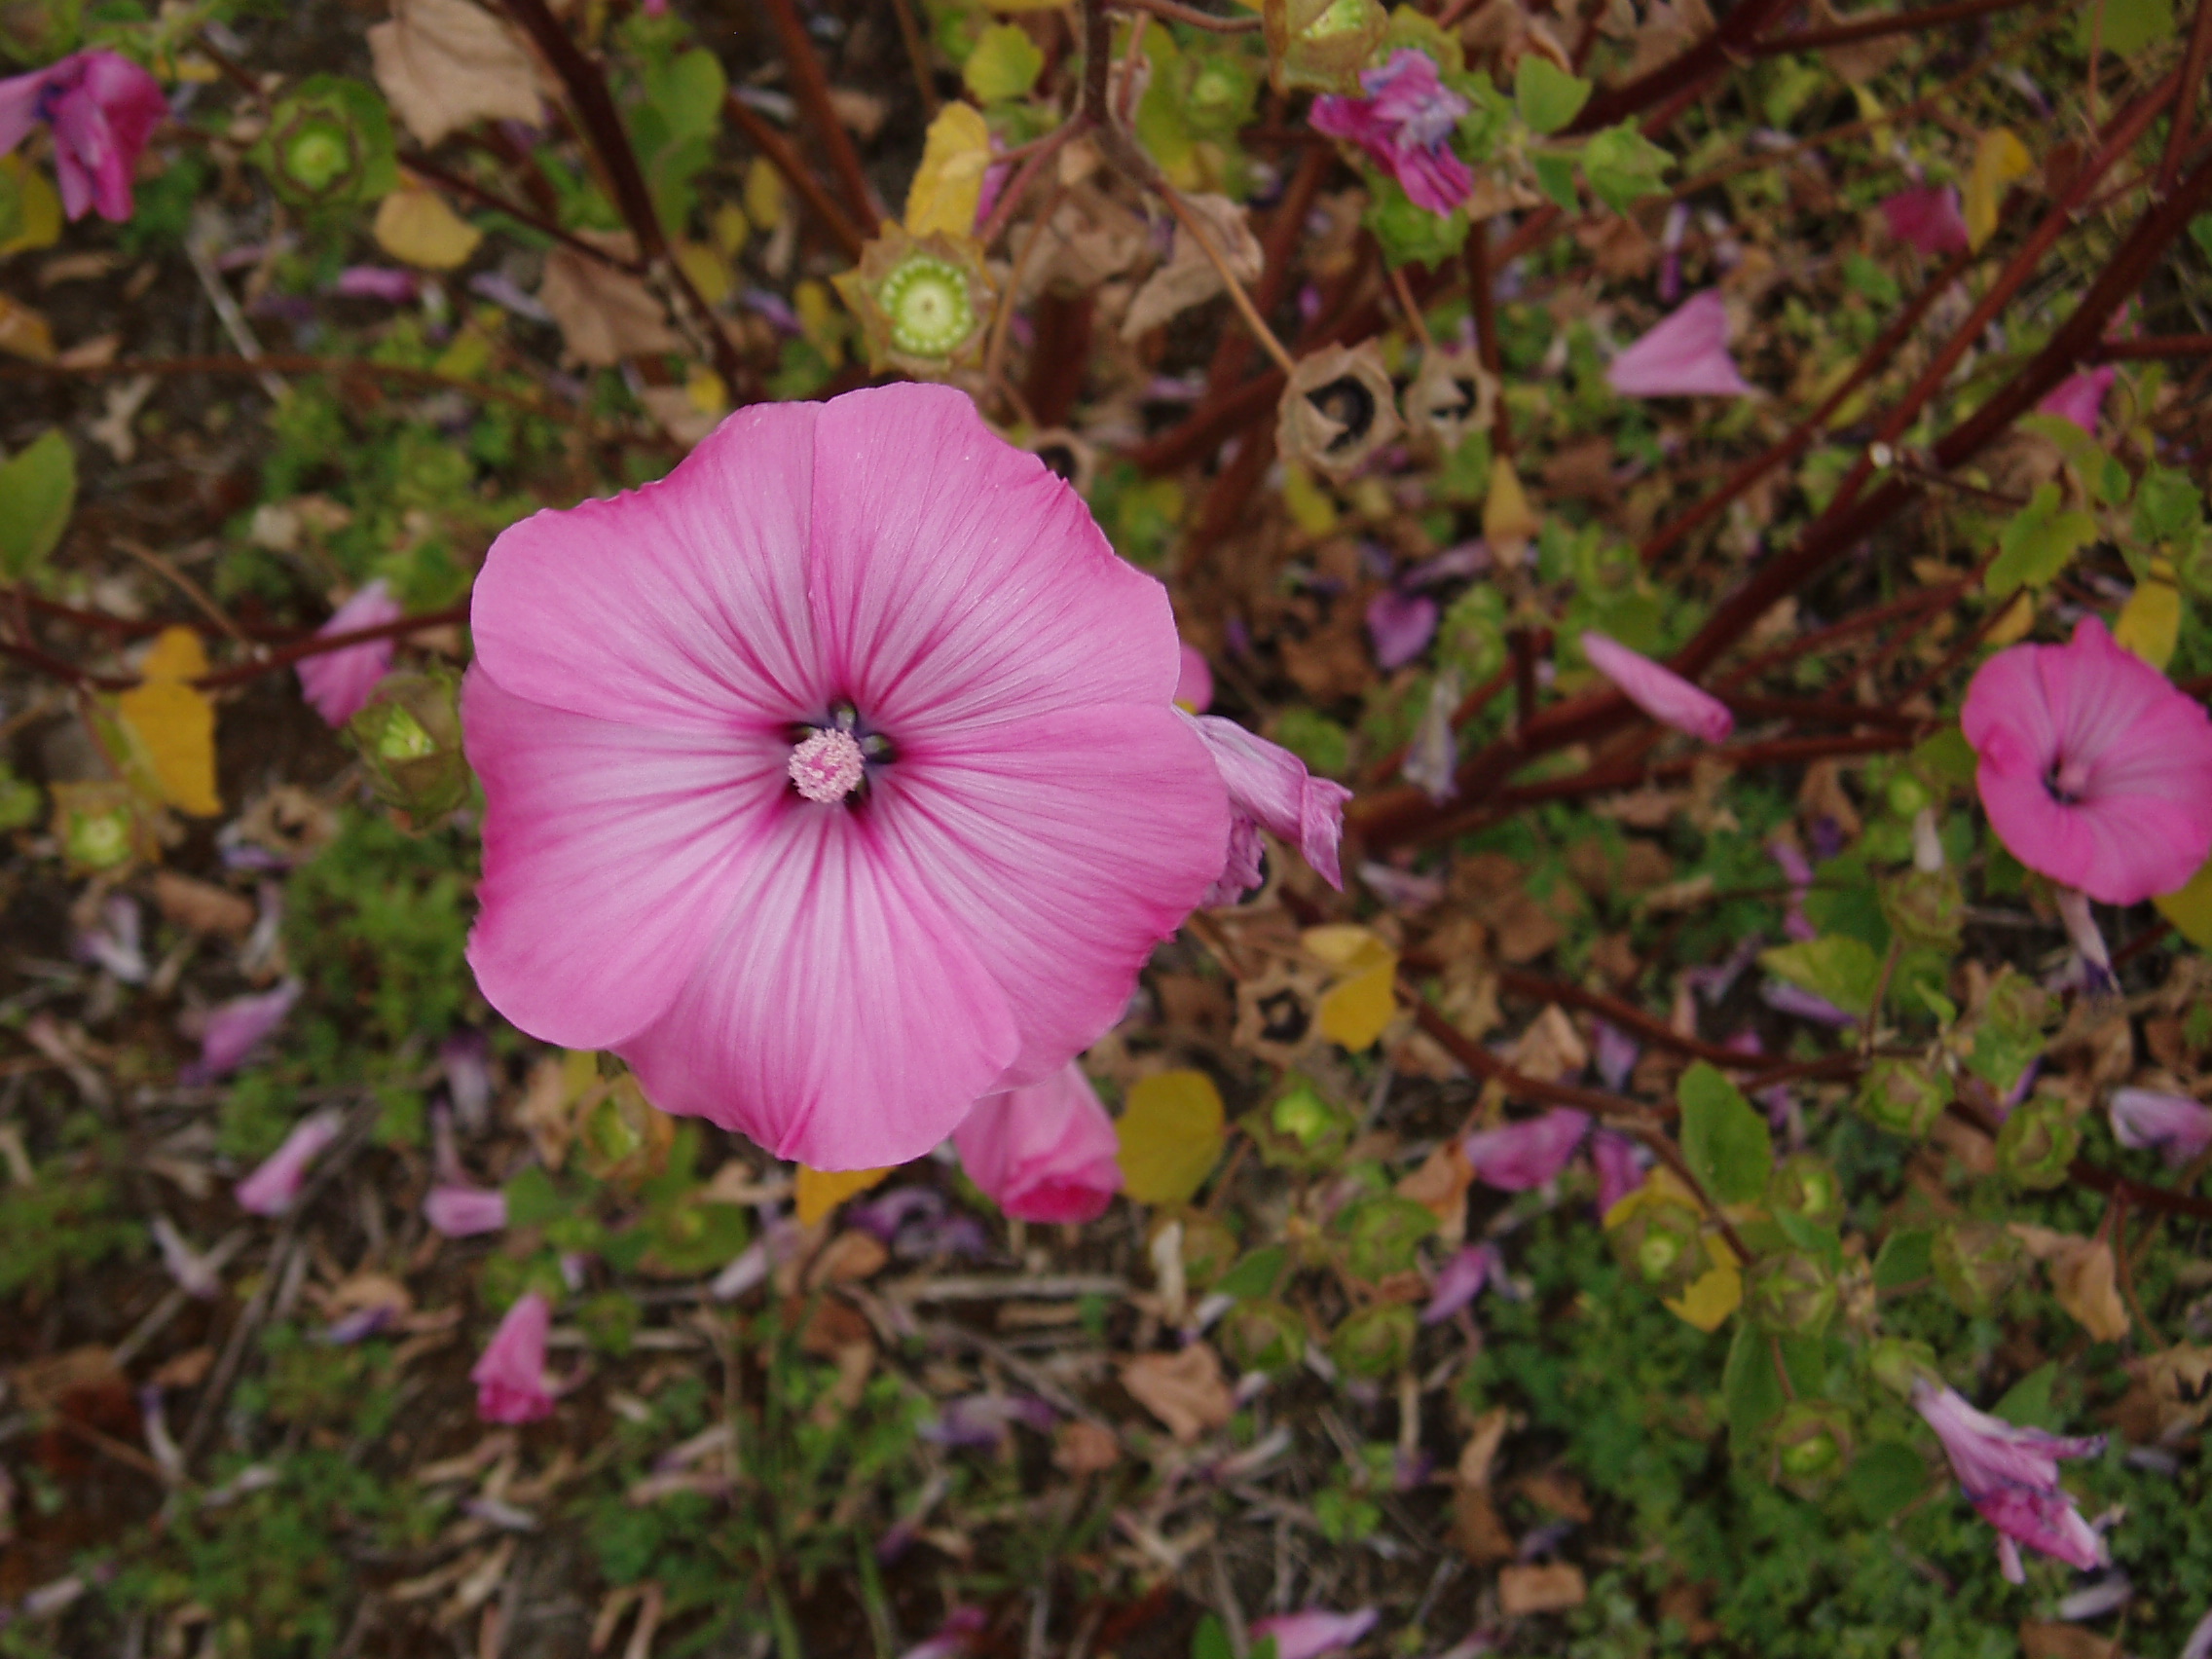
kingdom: Plantae
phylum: Tracheophyta
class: Magnoliopsida
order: Malvales
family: Malvaceae
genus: Malva
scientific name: Malva thuringiaca
